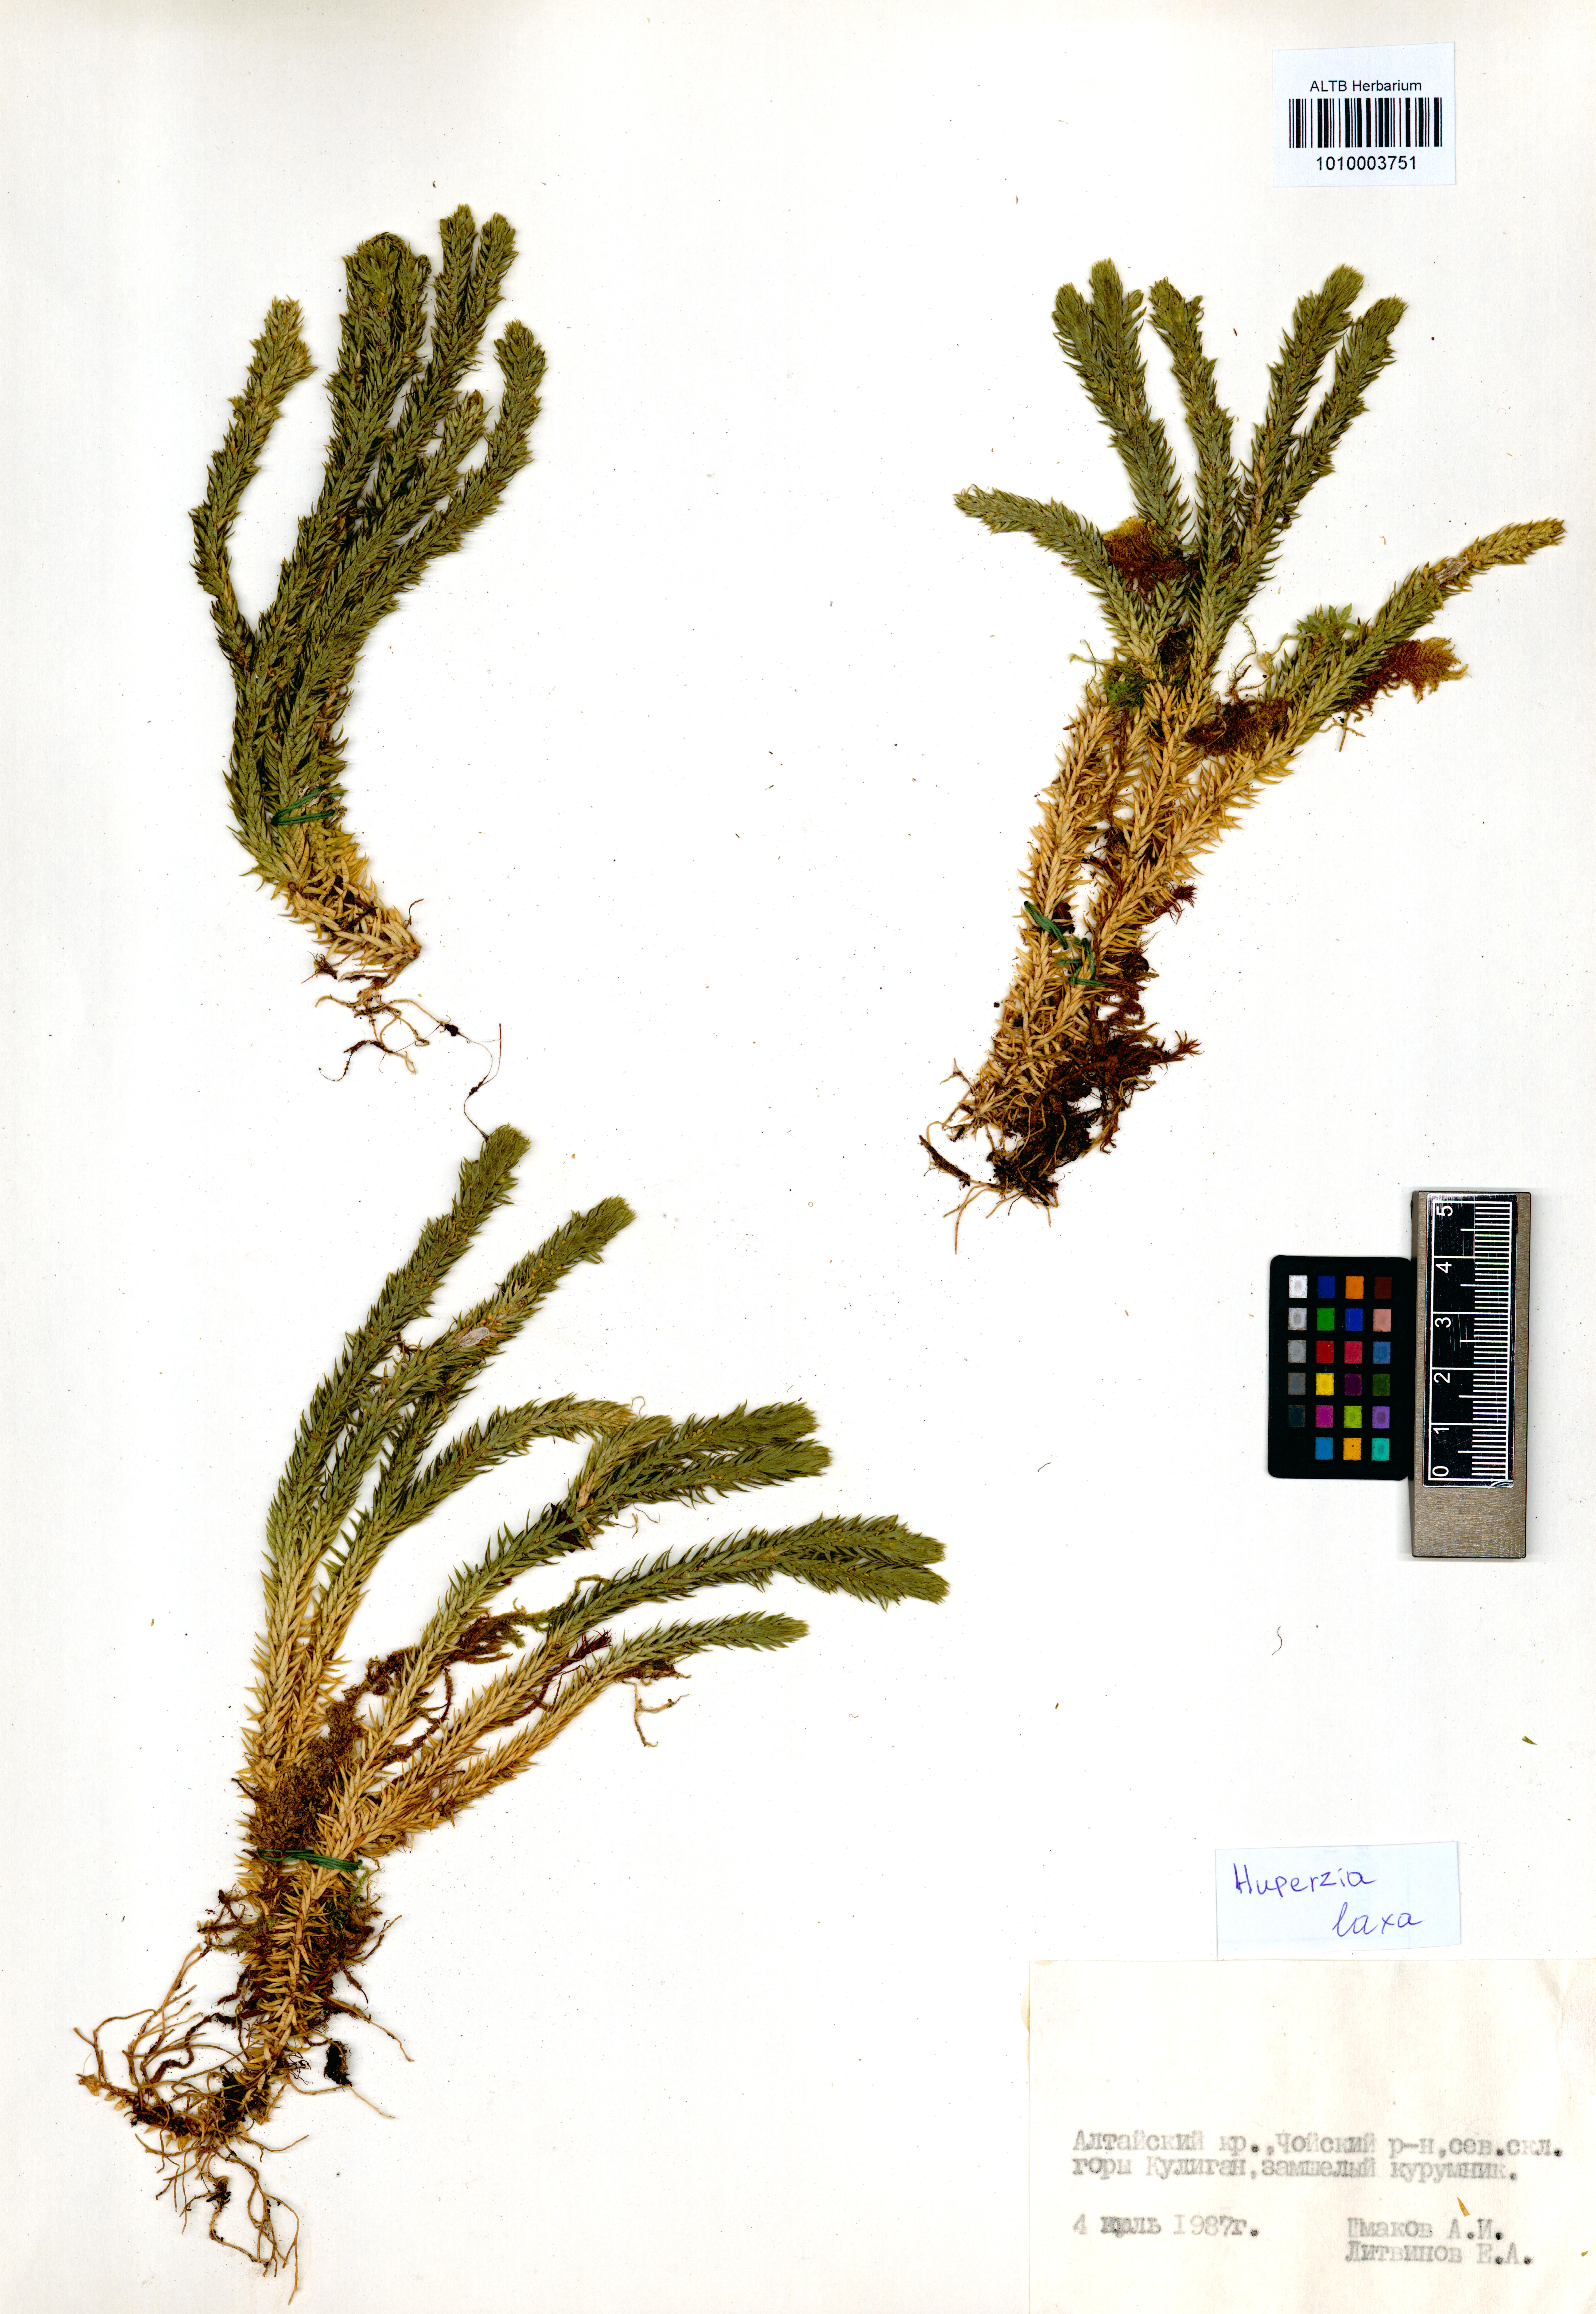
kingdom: Plantae
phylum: Tracheophyta
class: Lycopodiopsida
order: Lycopodiales
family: Lycopodiaceae
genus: Phlegmariurus
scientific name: Phlegmariurus carinatus
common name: Keeled tassel-fern
